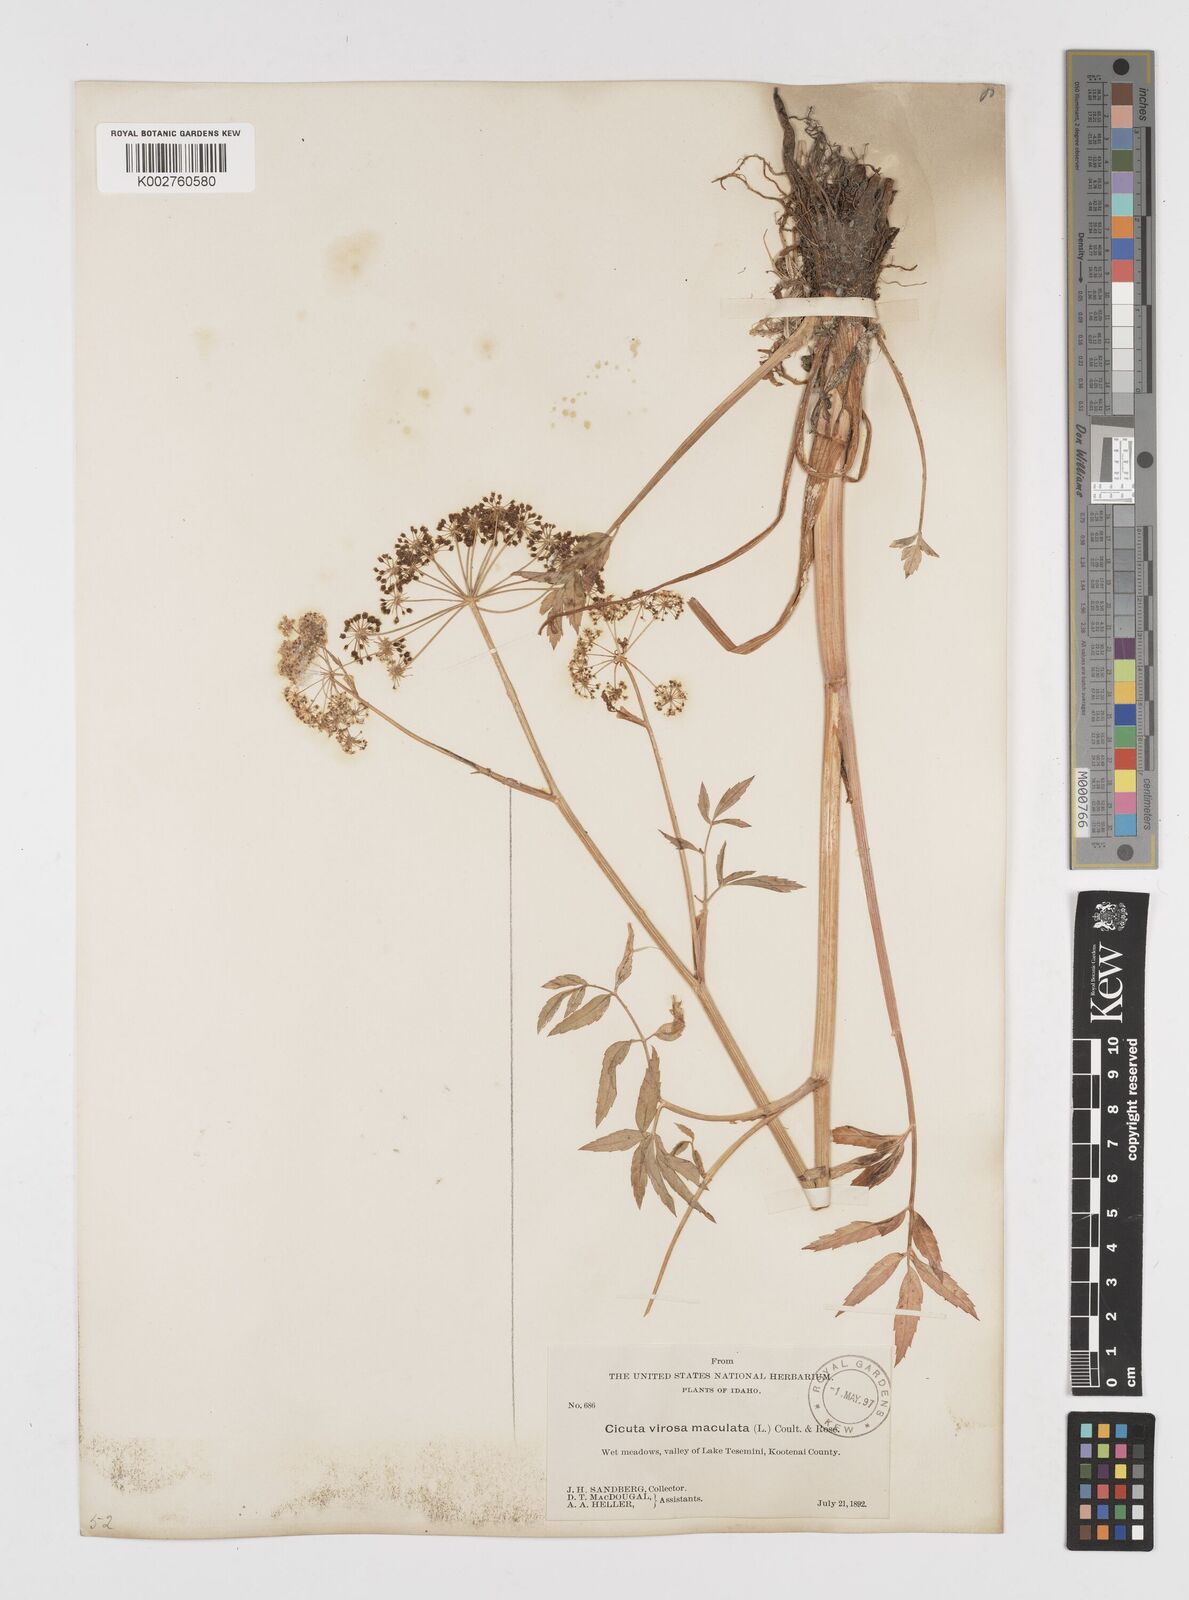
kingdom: Plantae
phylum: Tracheophyta
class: Magnoliopsida
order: Apiales
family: Apiaceae
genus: Cicuta
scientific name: Cicuta douglasii
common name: Western water-hemlock
